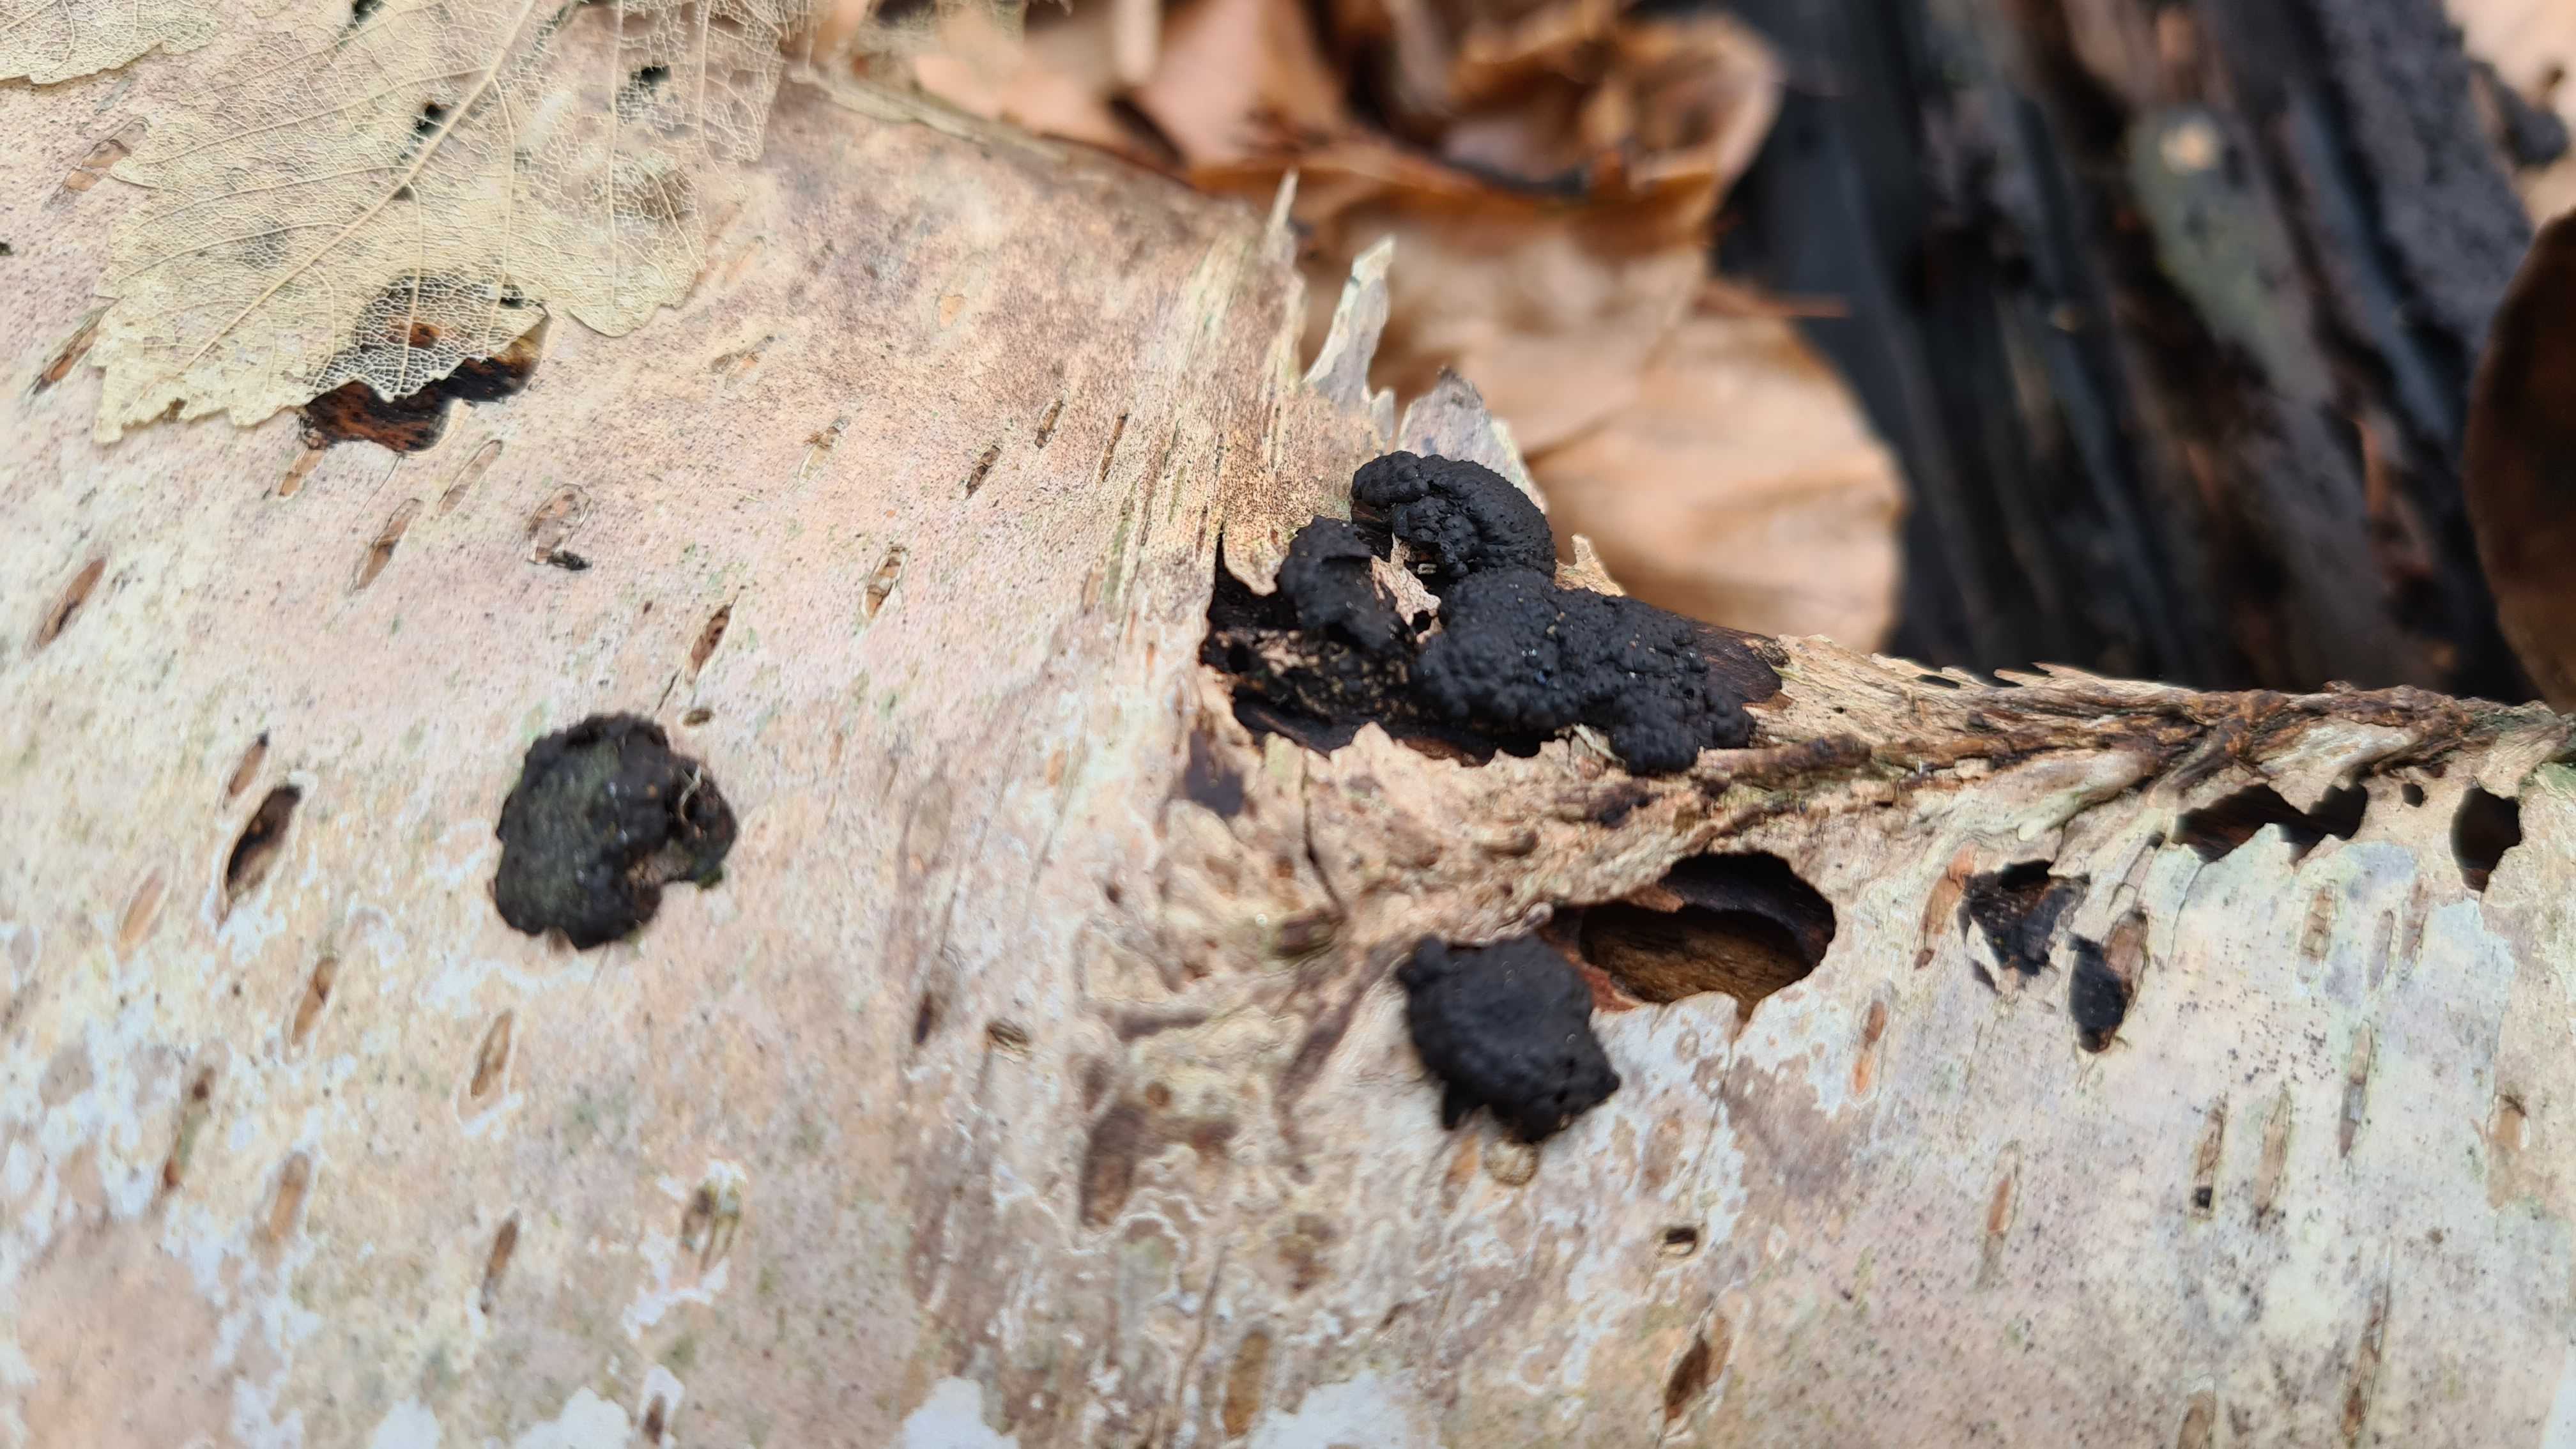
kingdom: Fungi
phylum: Ascomycota
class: Sordariomycetes
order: Xylariales
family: Hypoxylaceae
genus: Jackrogersella
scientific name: Jackrogersella multiformis
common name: foranderlig kulbær
